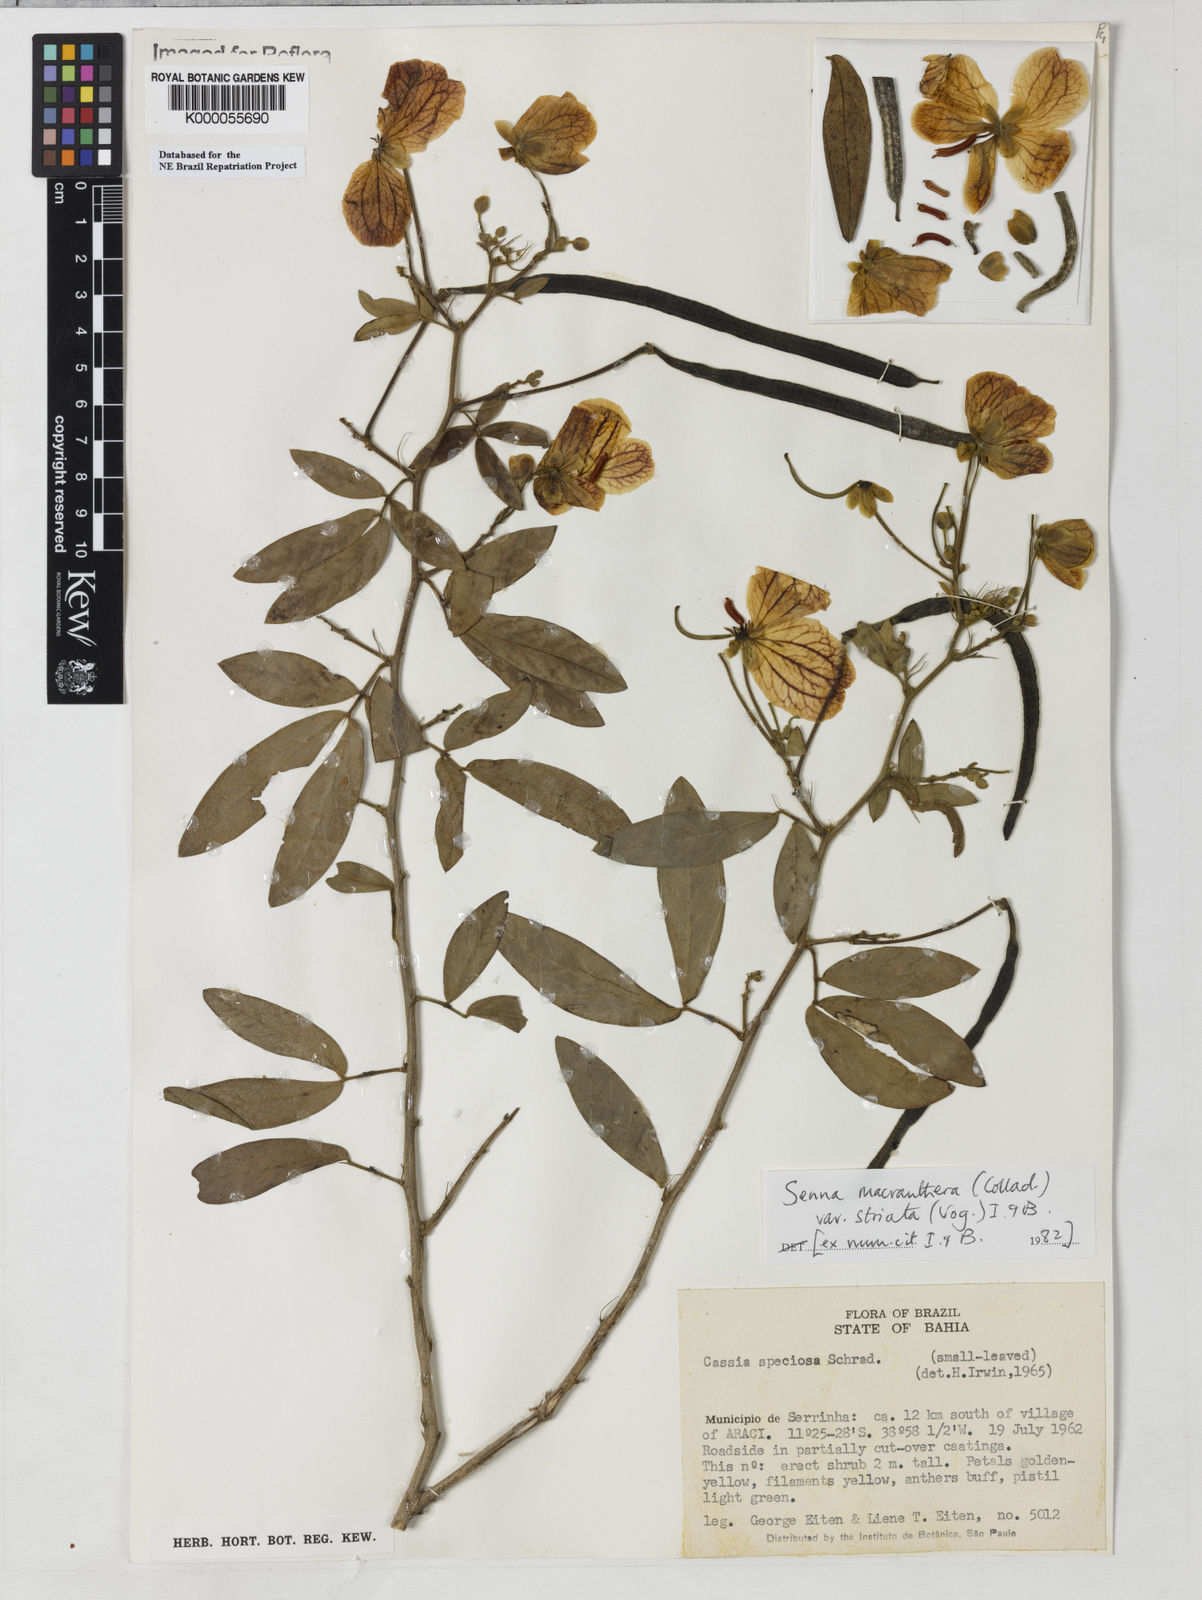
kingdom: Plantae
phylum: Tracheophyta
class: Magnoliopsida
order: Fabales
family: Fabaceae
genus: Senna
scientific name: Senna macranthera
